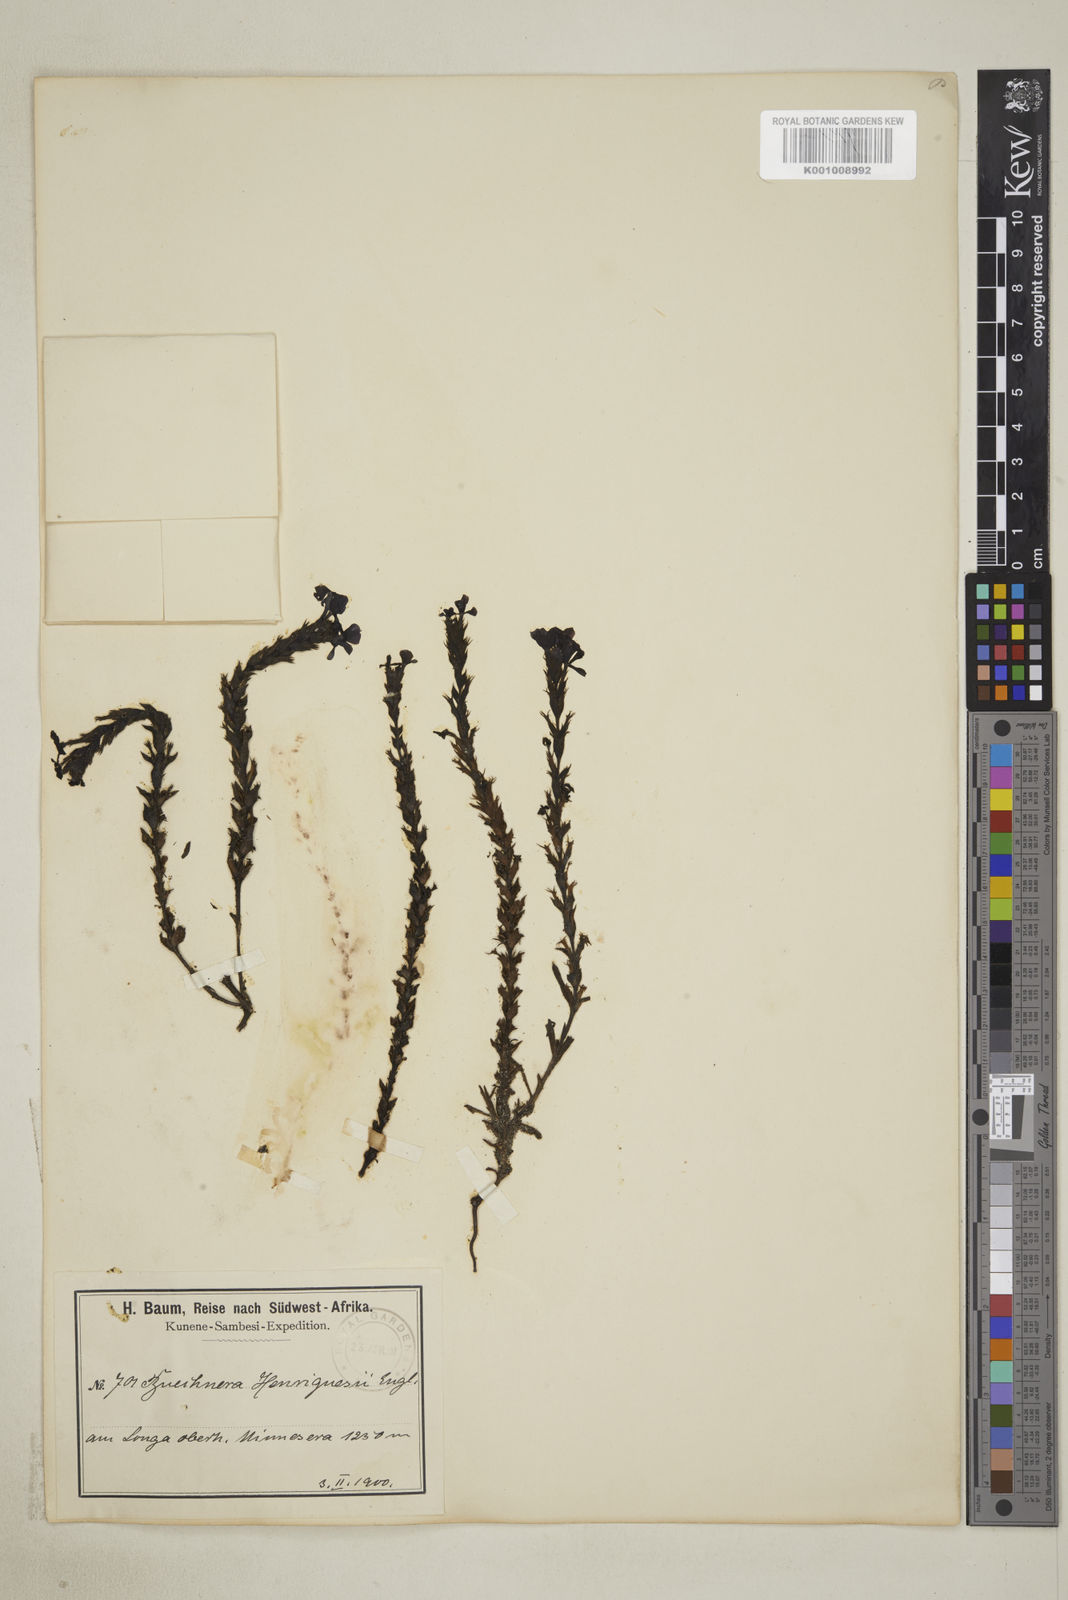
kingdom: Plantae
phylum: Tracheophyta
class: Magnoliopsida
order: Lamiales
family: Orobanchaceae
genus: Buchnera
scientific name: Buchnera henriquesii
